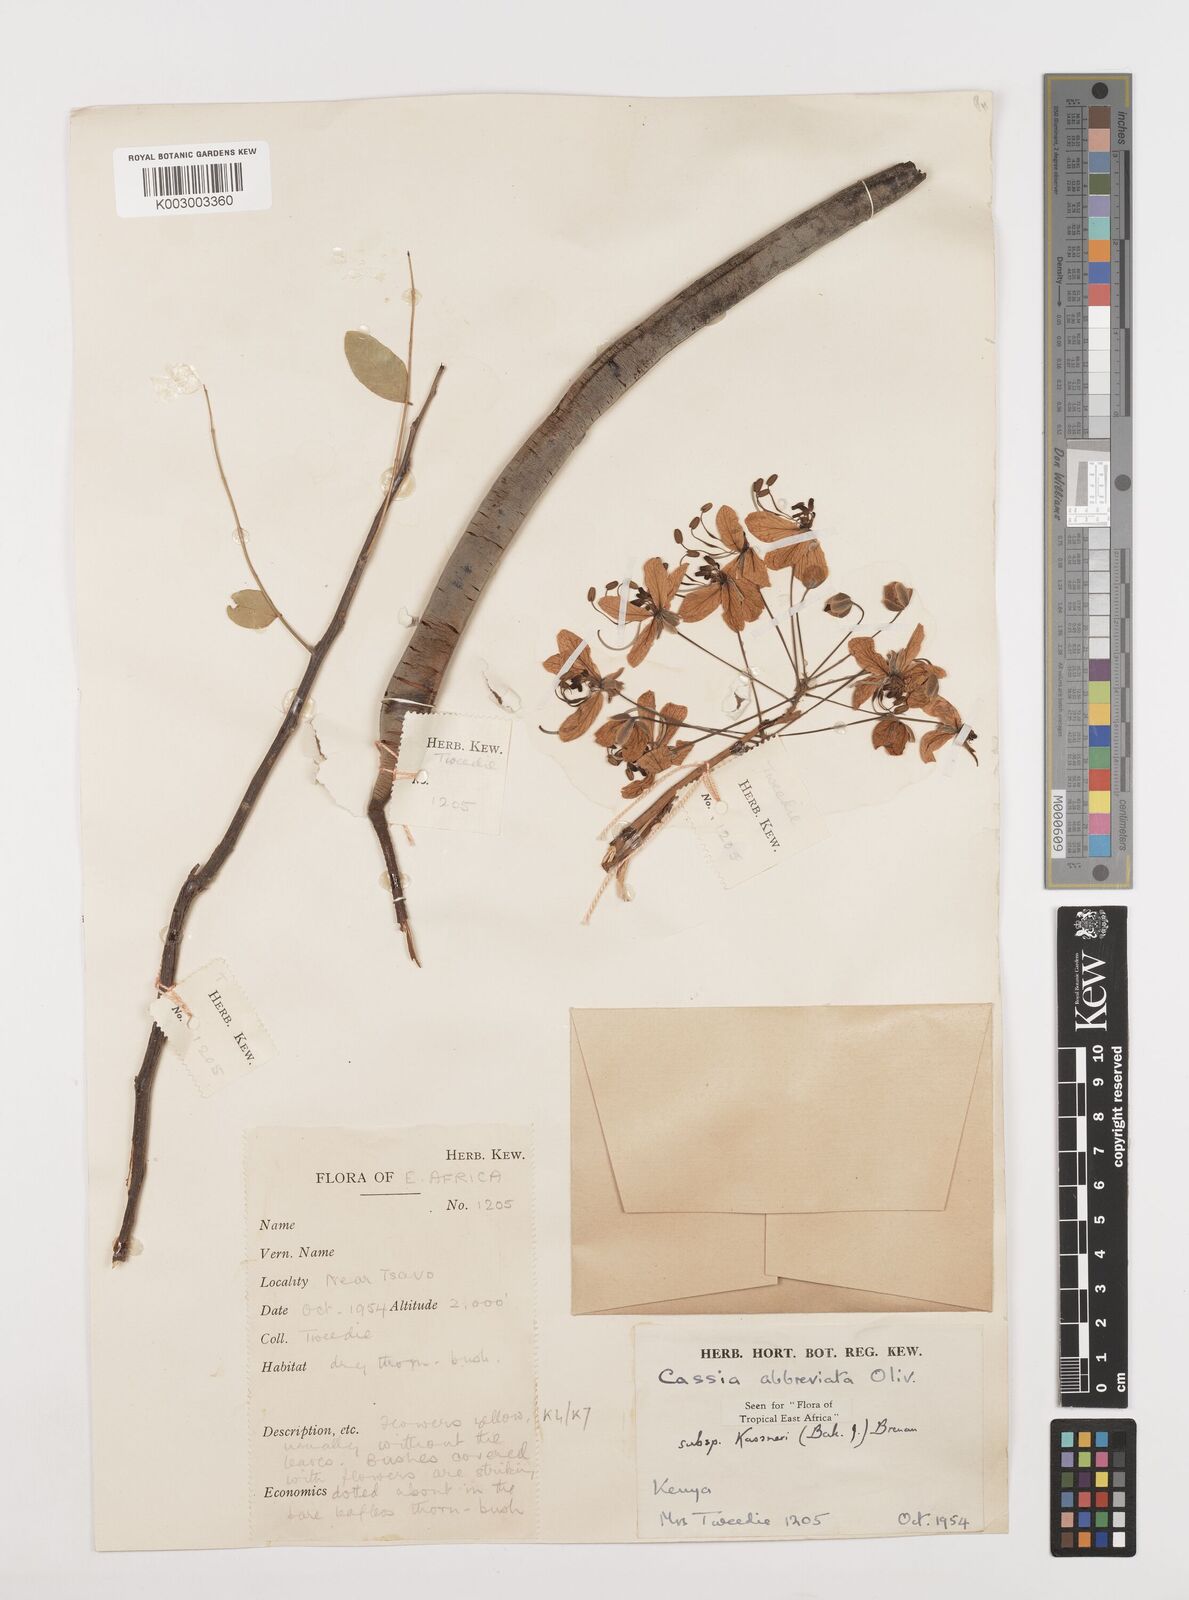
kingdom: Plantae
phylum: Tracheophyta
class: Magnoliopsida
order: Fabales
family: Fabaceae
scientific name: Fabaceae
